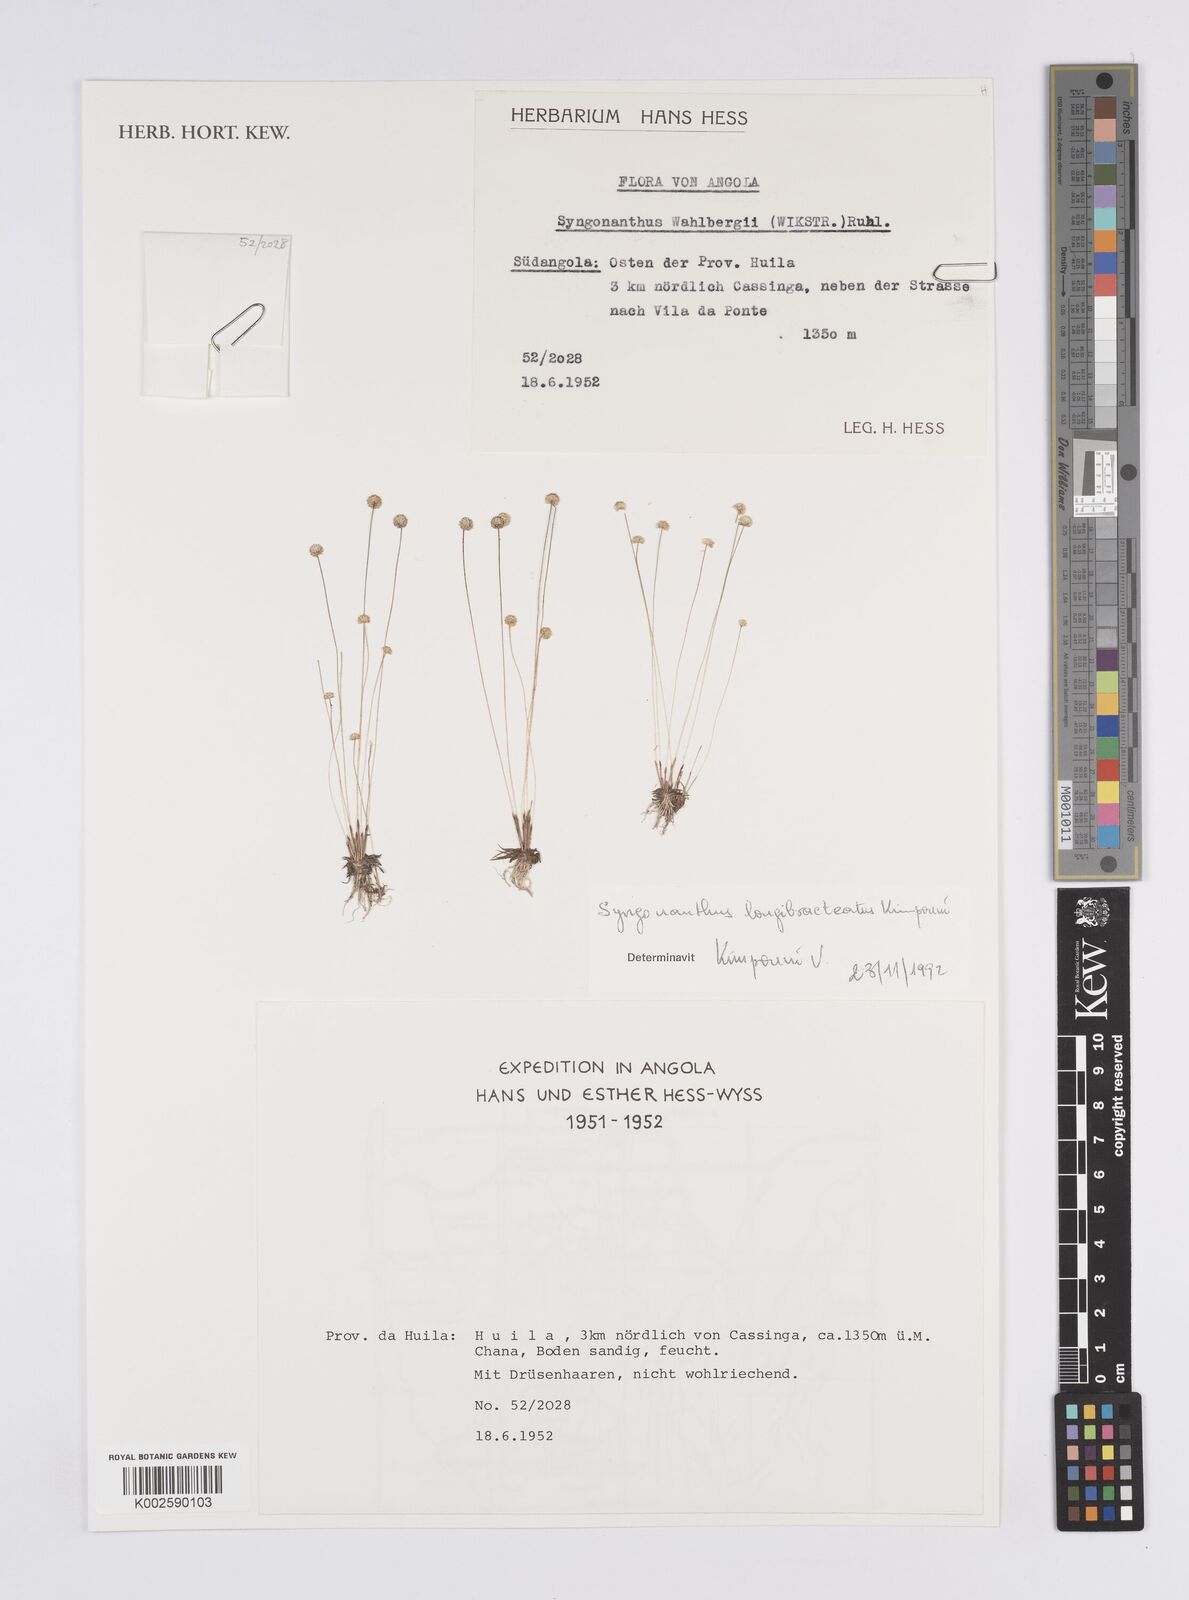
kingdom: Plantae
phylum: Tracheophyta
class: Liliopsida
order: Poales
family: Eriocaulaceae
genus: Syngonanthus
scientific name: Syngonanthus longibracteatus
